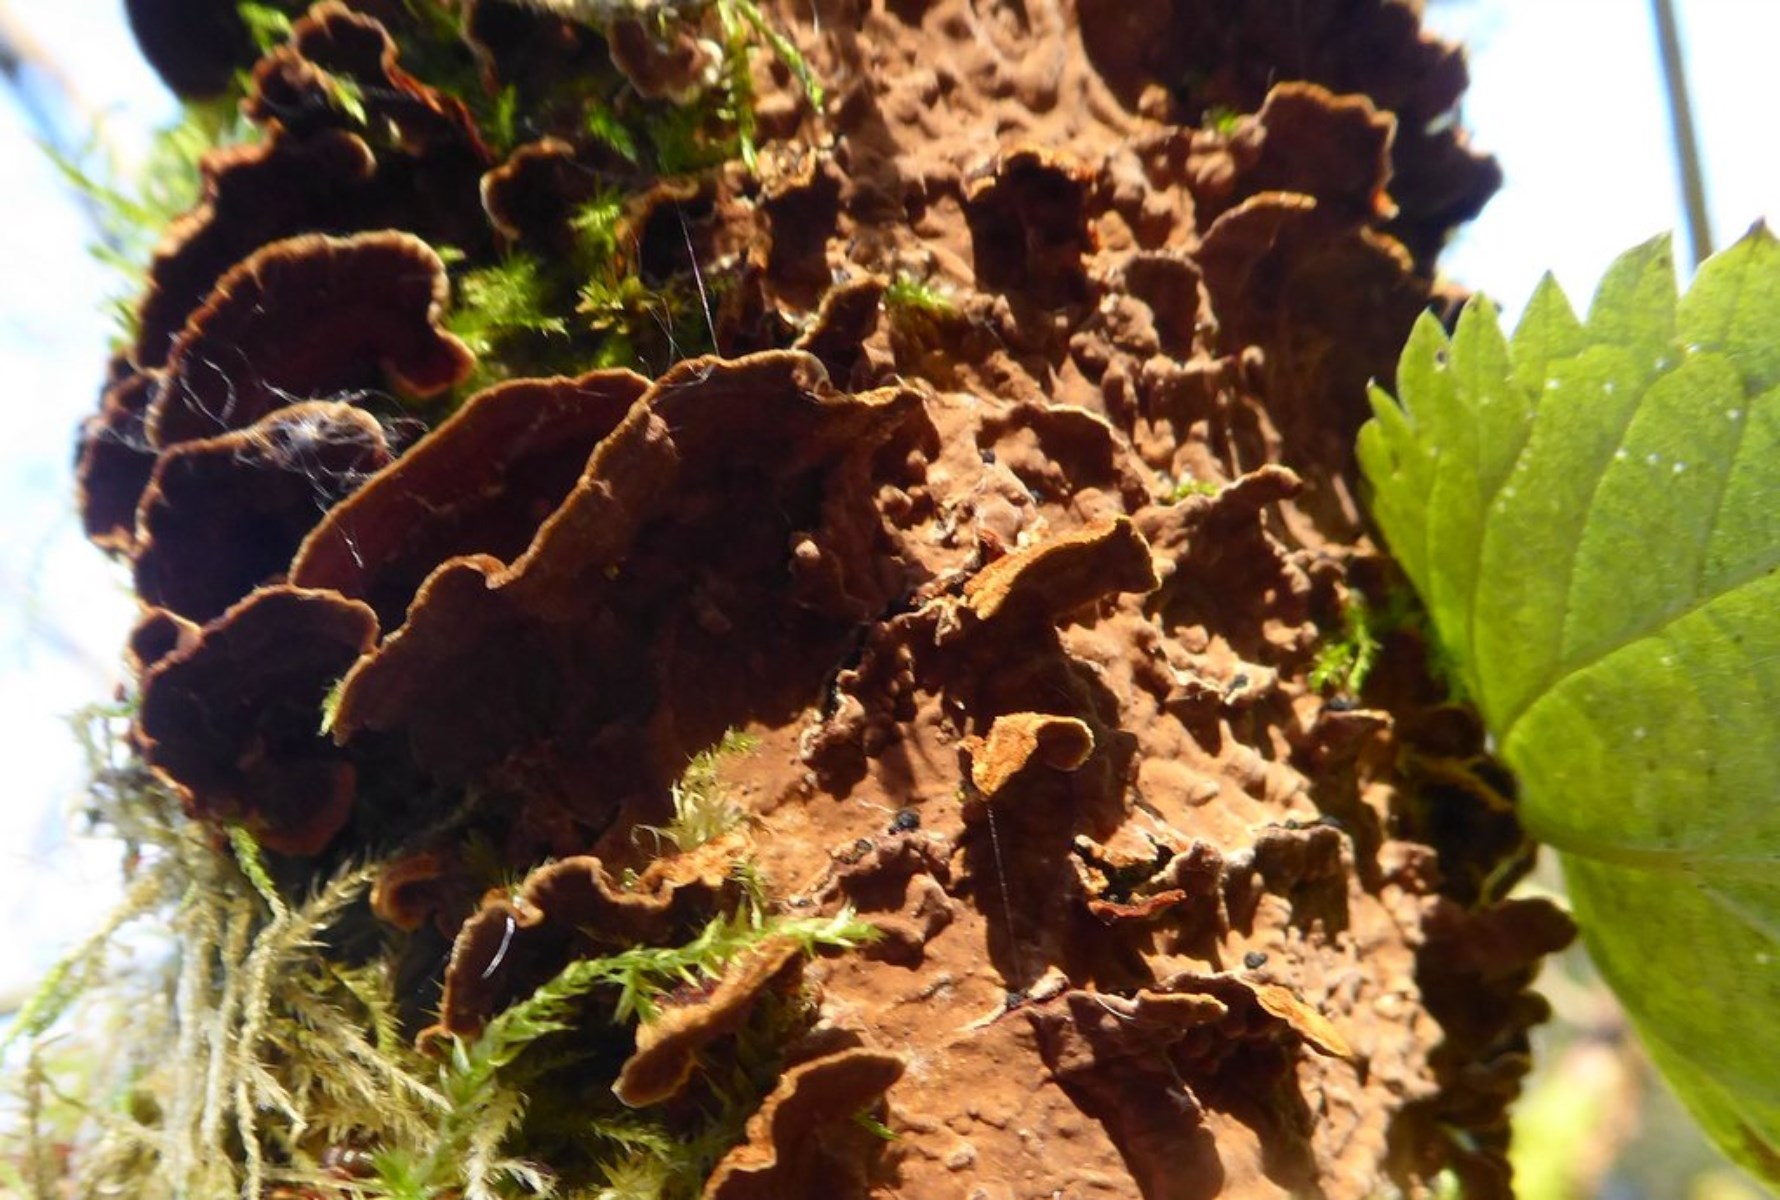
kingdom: Fungi
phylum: Basidiomycota
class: Agaricomycetes
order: Hymenochaetales
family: Hymenochaetaceae
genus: Hydnoporia
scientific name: Hydnoporia tabacina
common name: tobaksbrun ruslædersvamp
